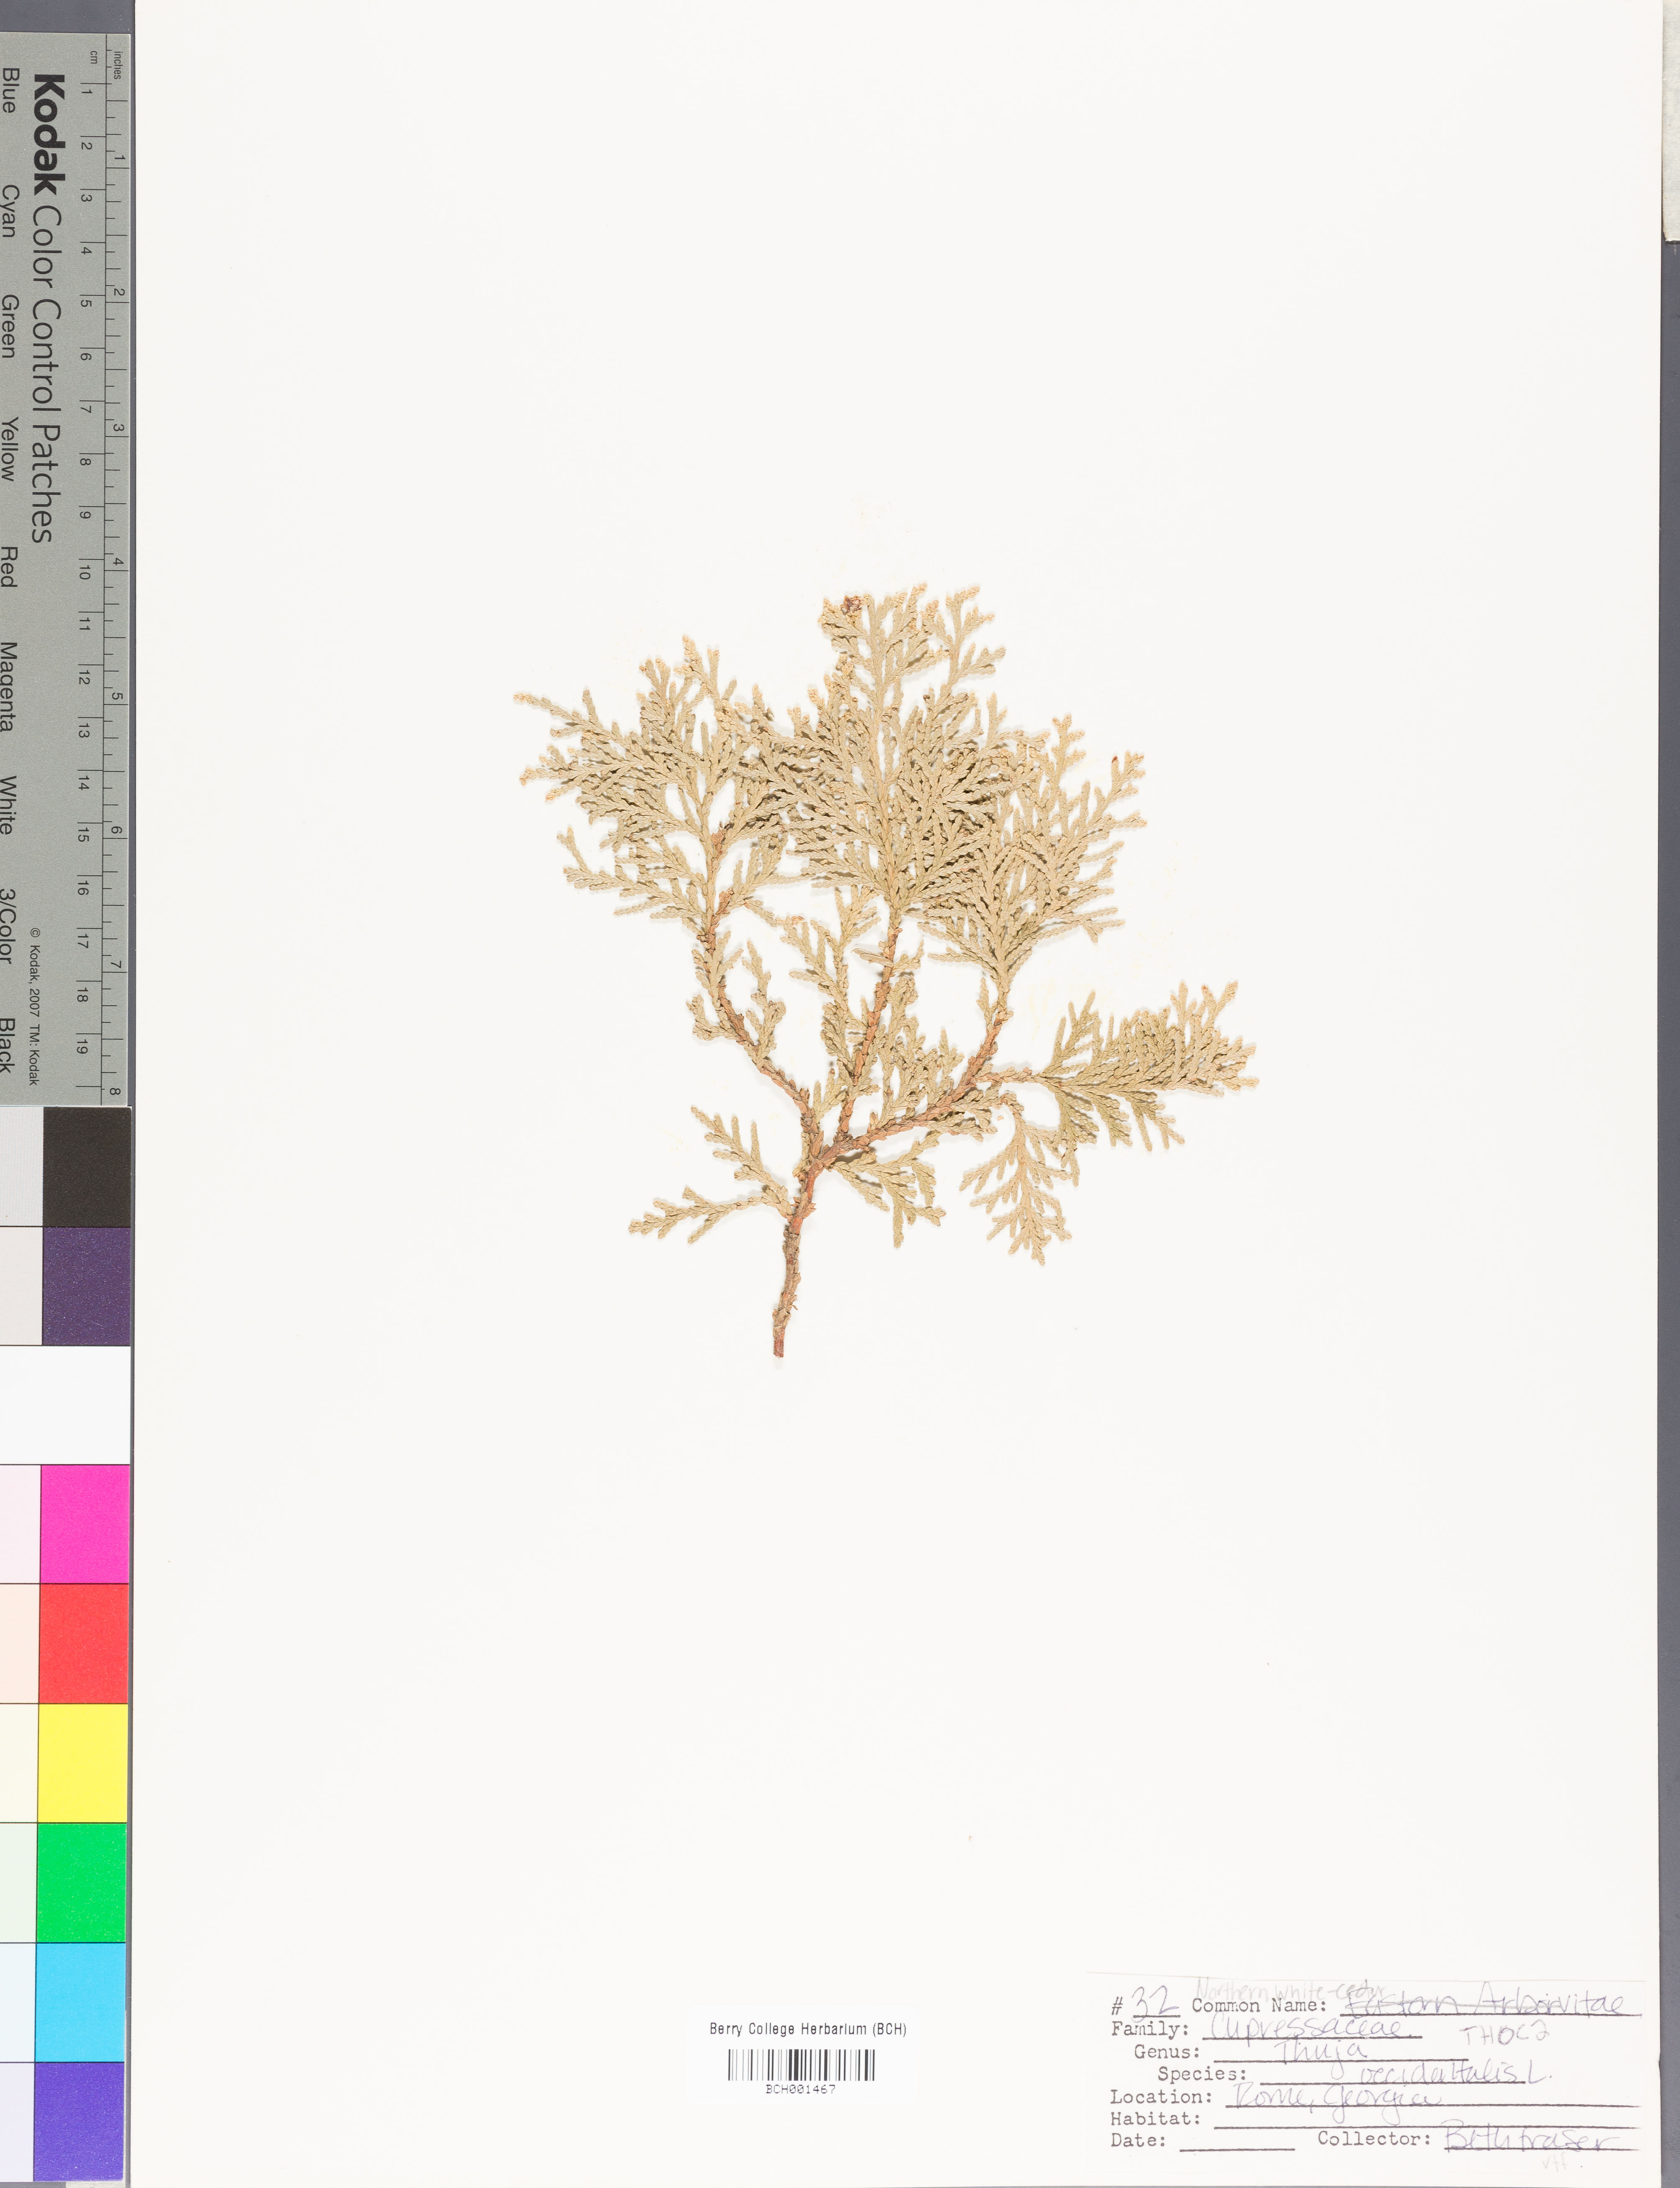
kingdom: Plantae
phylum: Tracheophyta
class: Pinopsida
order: Pinales
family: Cupressaceae
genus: Thuja
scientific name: Thuja occidentalis
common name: Northern white-cedar
